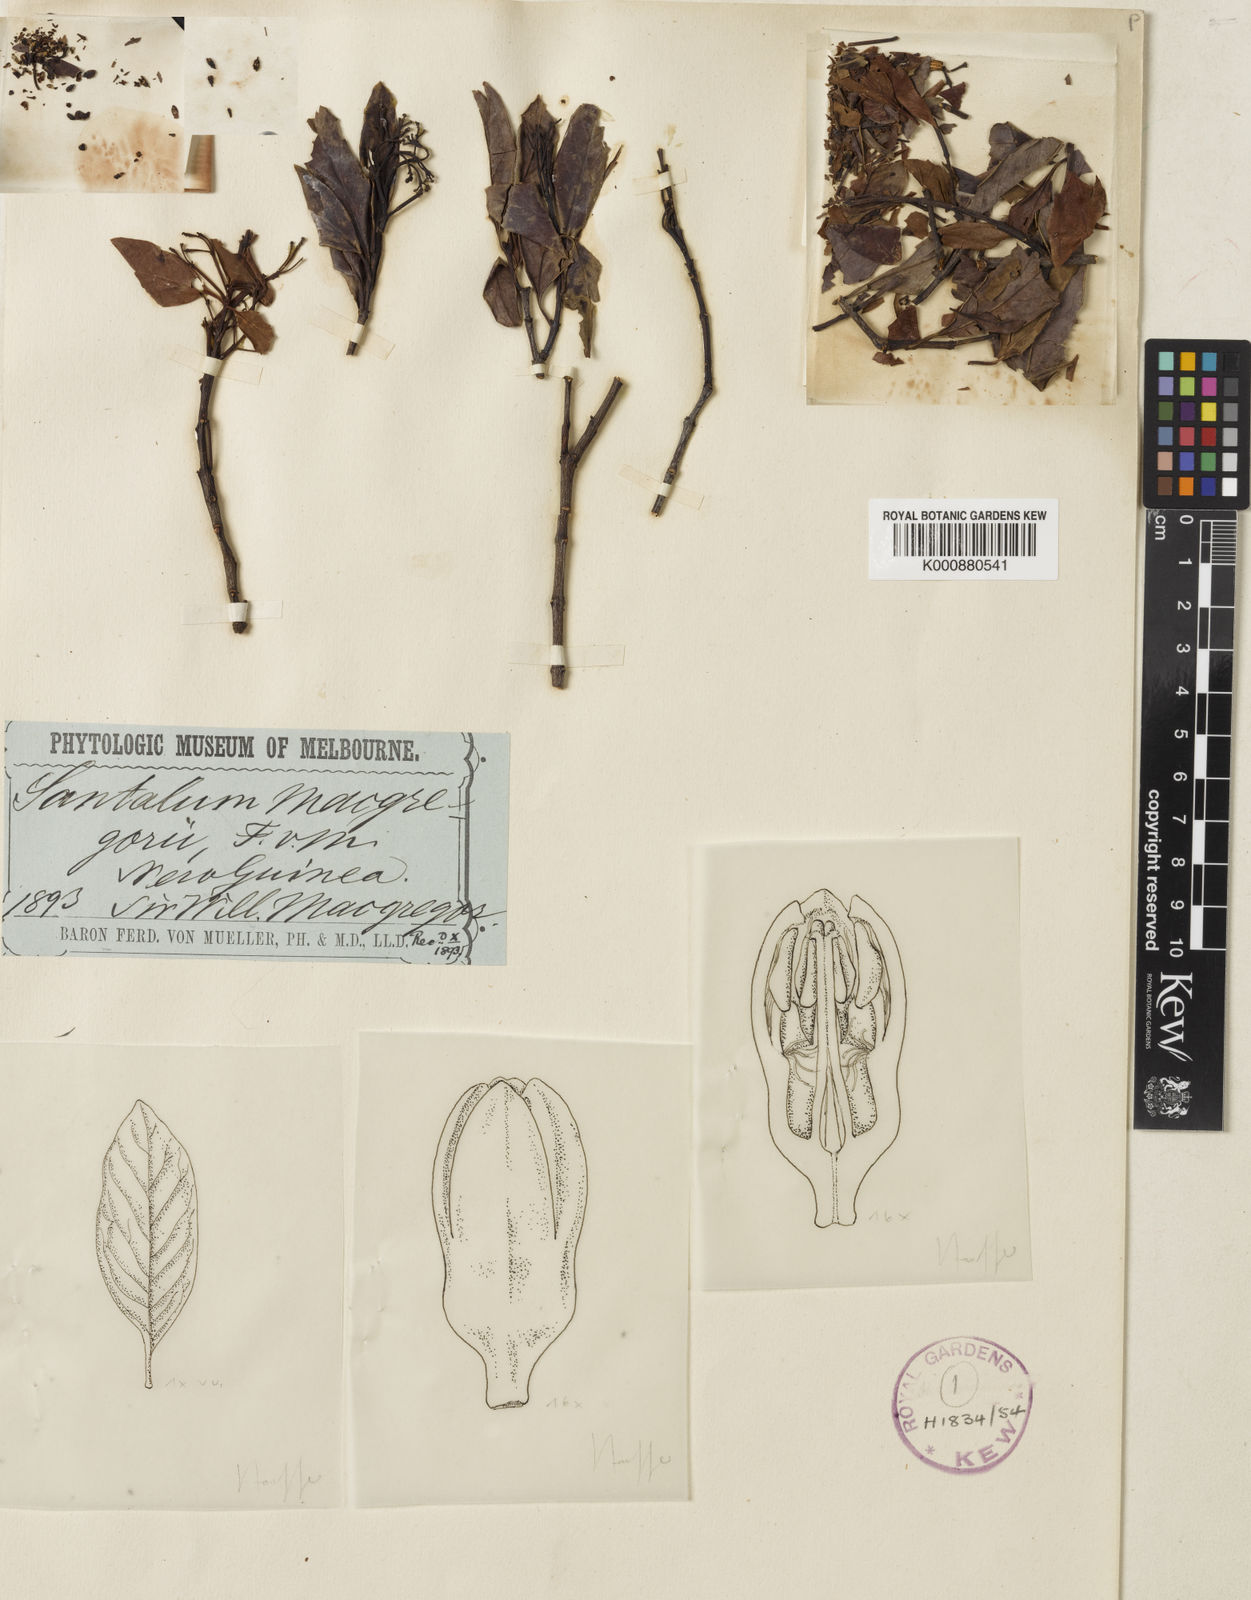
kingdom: Plantae
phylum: Tracheophyta
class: Magnoliopsida
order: Santalales
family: Santalaceae
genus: Santalum
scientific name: Santalum macgregorii
